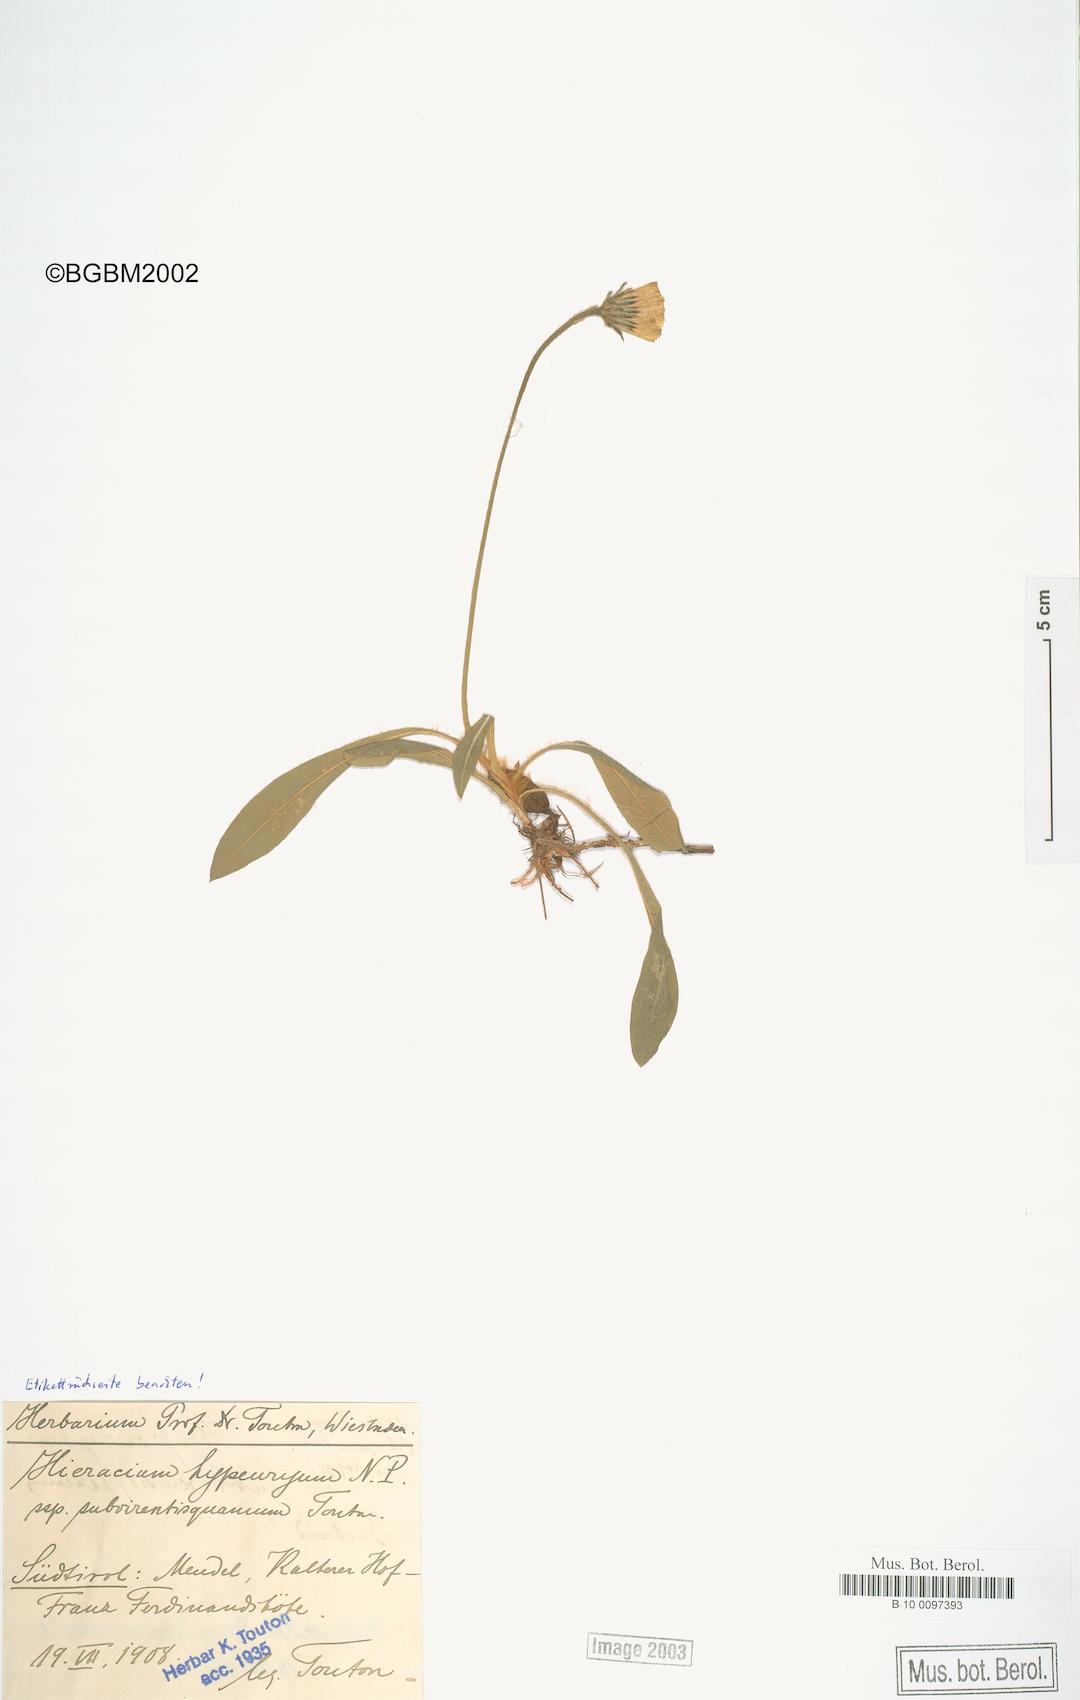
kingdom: Plantae
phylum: Tracheophyta
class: Magnoliopsida
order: Asterales
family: Asteraceae
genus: Hieracium
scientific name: Hieracium hypeurum
